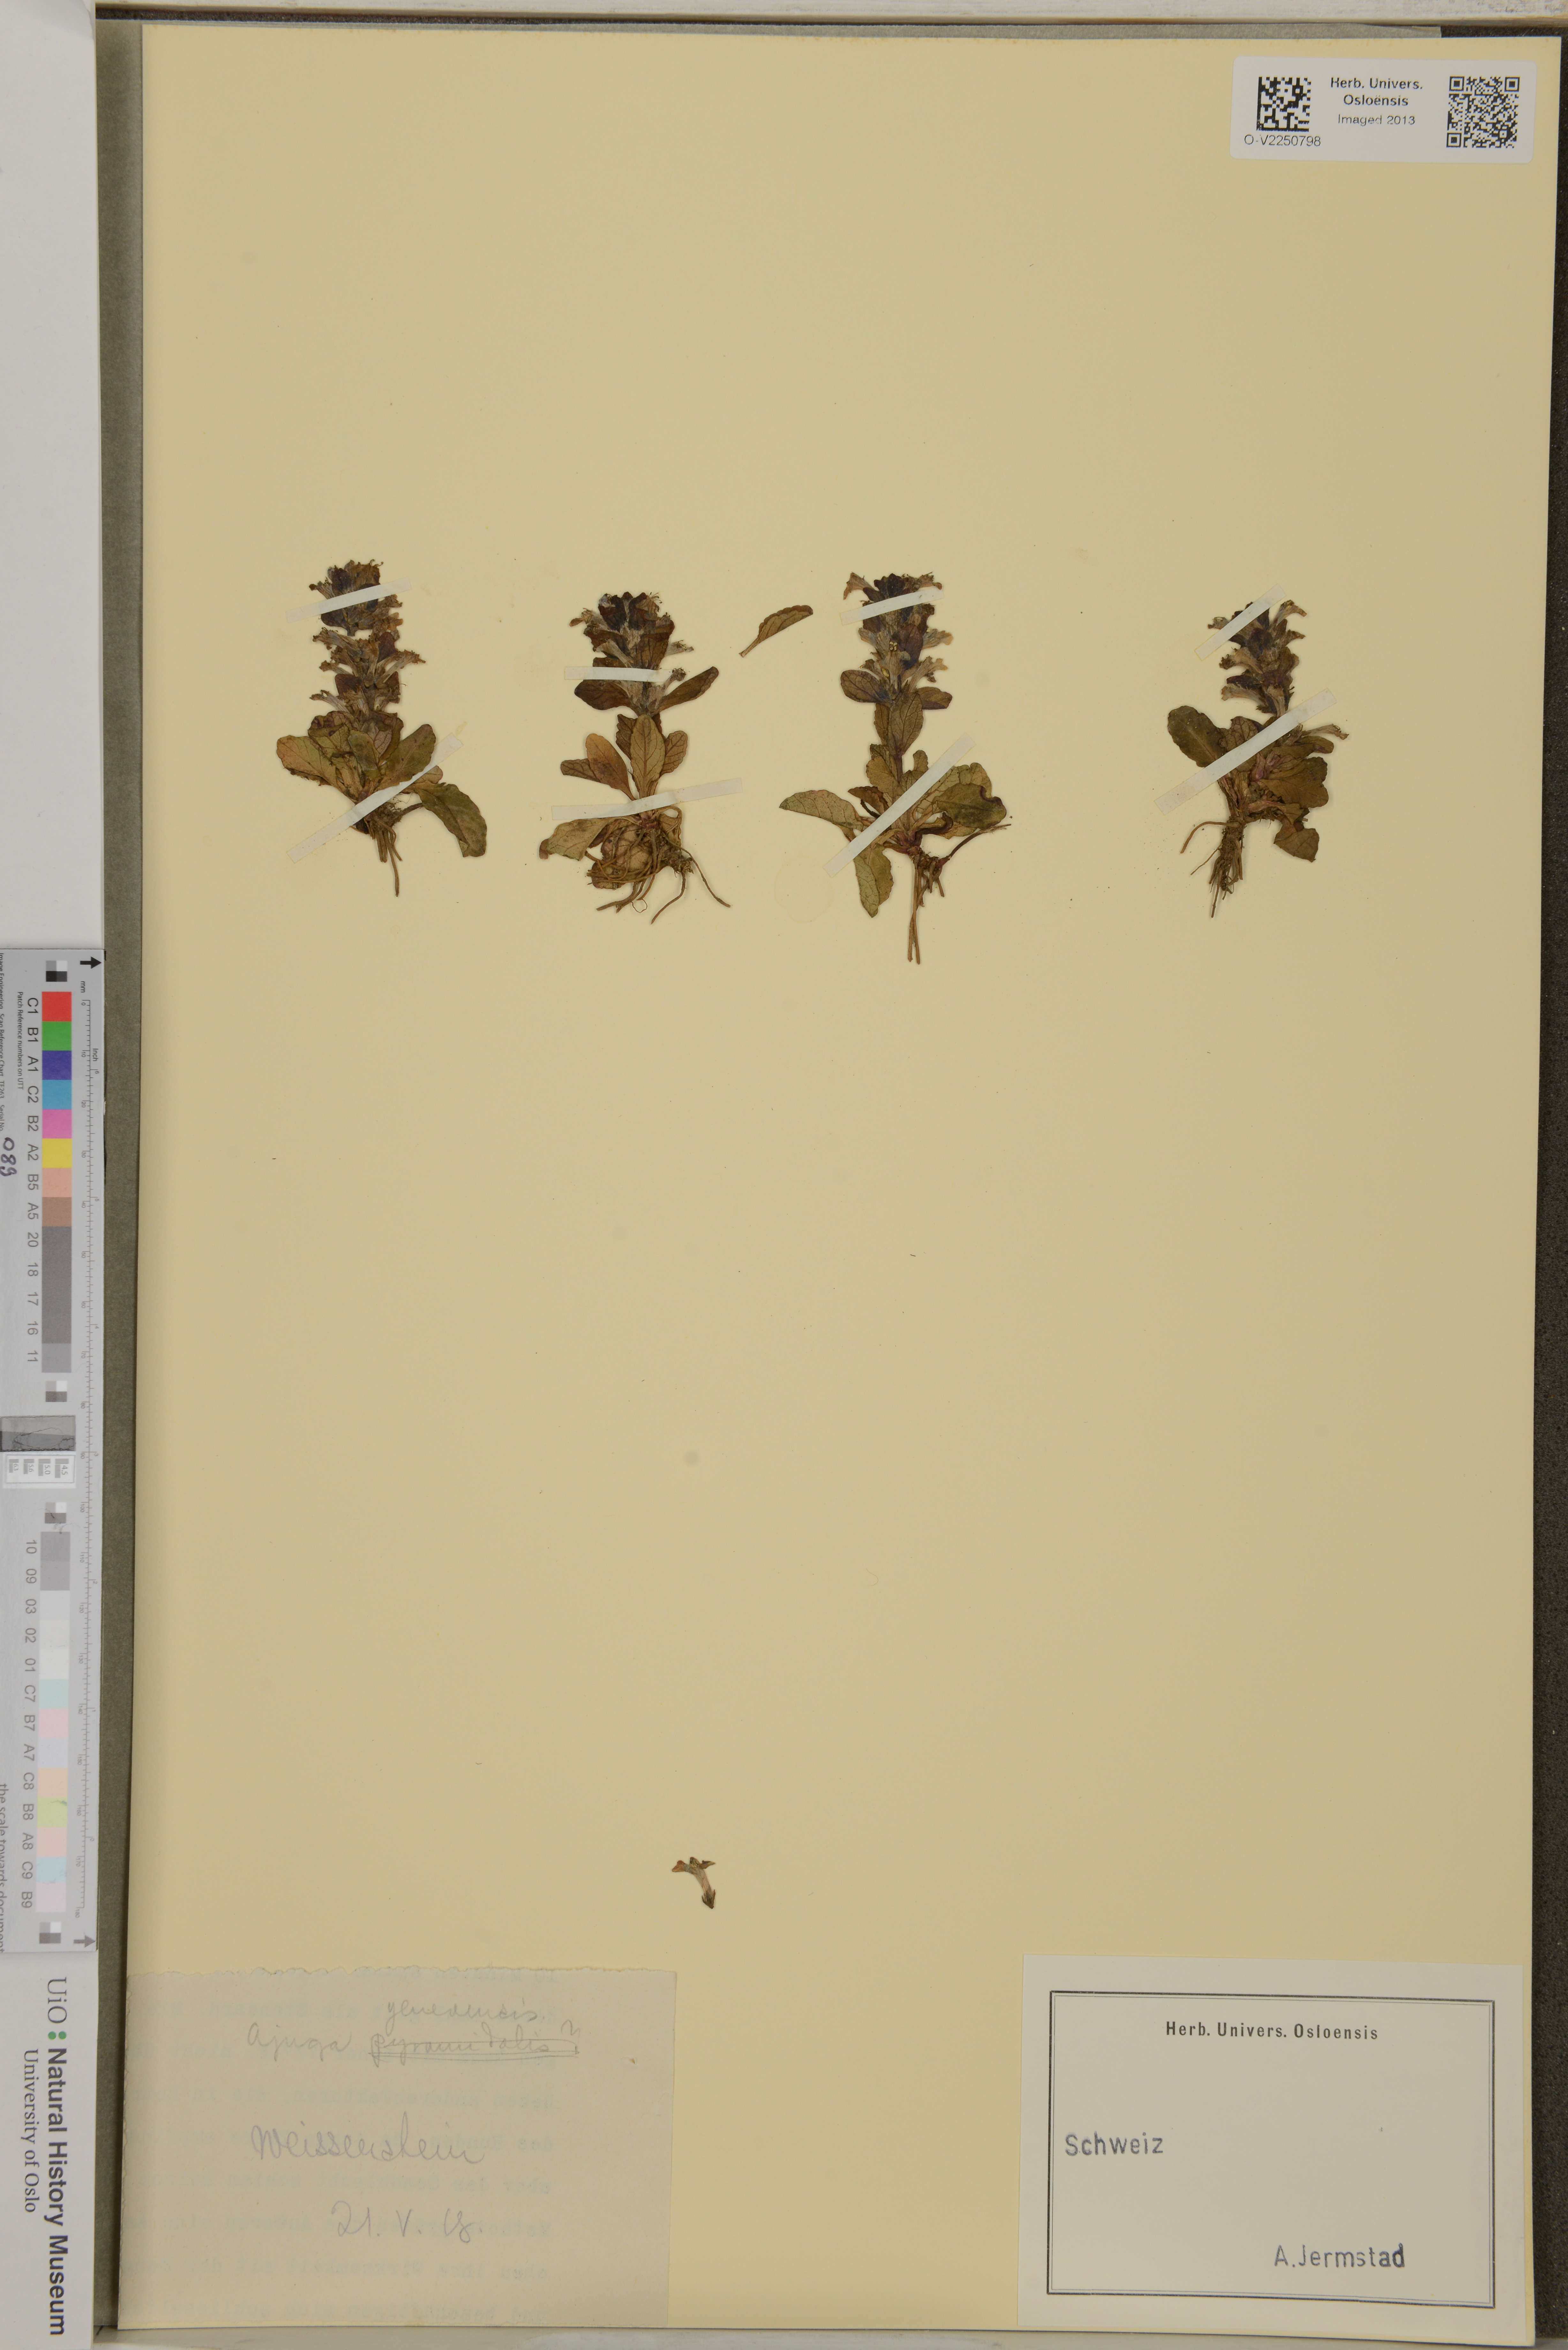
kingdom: Plantae
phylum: Tracheophyta
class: Magnoliopsida
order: Lamiales
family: Lamiaceae
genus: Ajuga
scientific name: Ajuga genevensis
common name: Blue bugle
